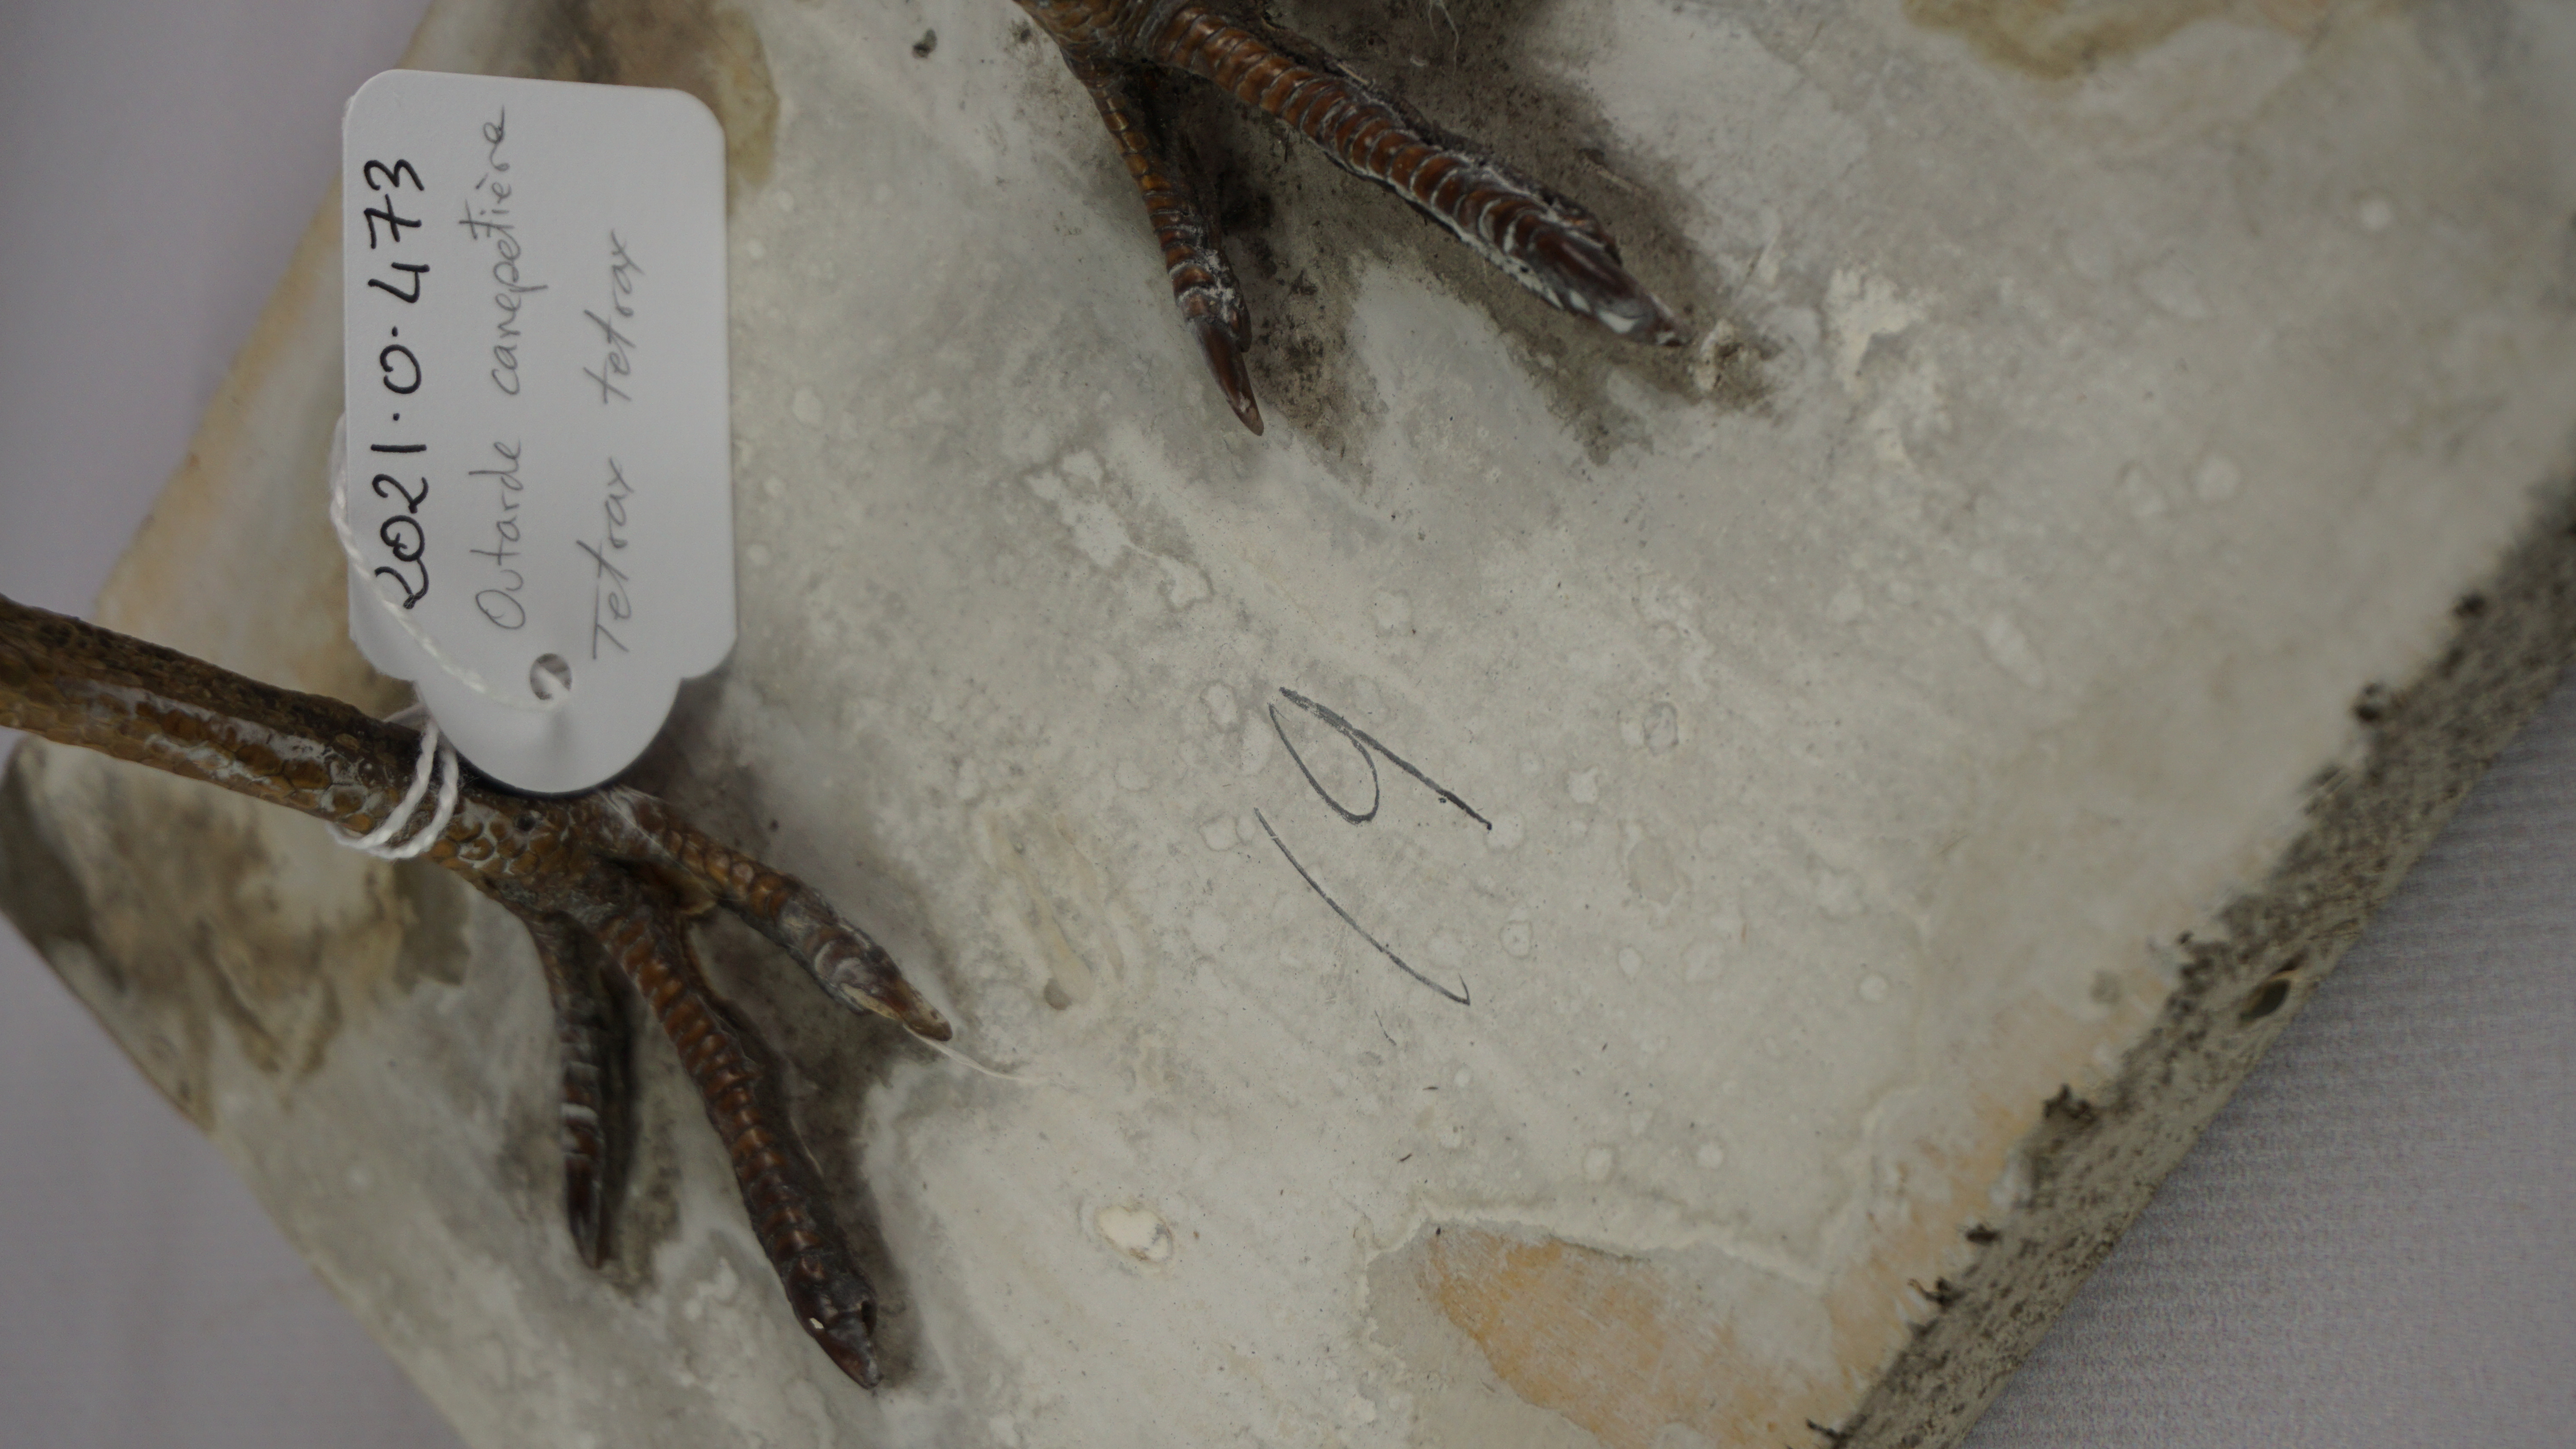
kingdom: Animalia
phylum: Chordata
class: Aves
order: Otidiformes
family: Otididae
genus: Tetrax
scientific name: Tetrax tetrax
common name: Little bustard
